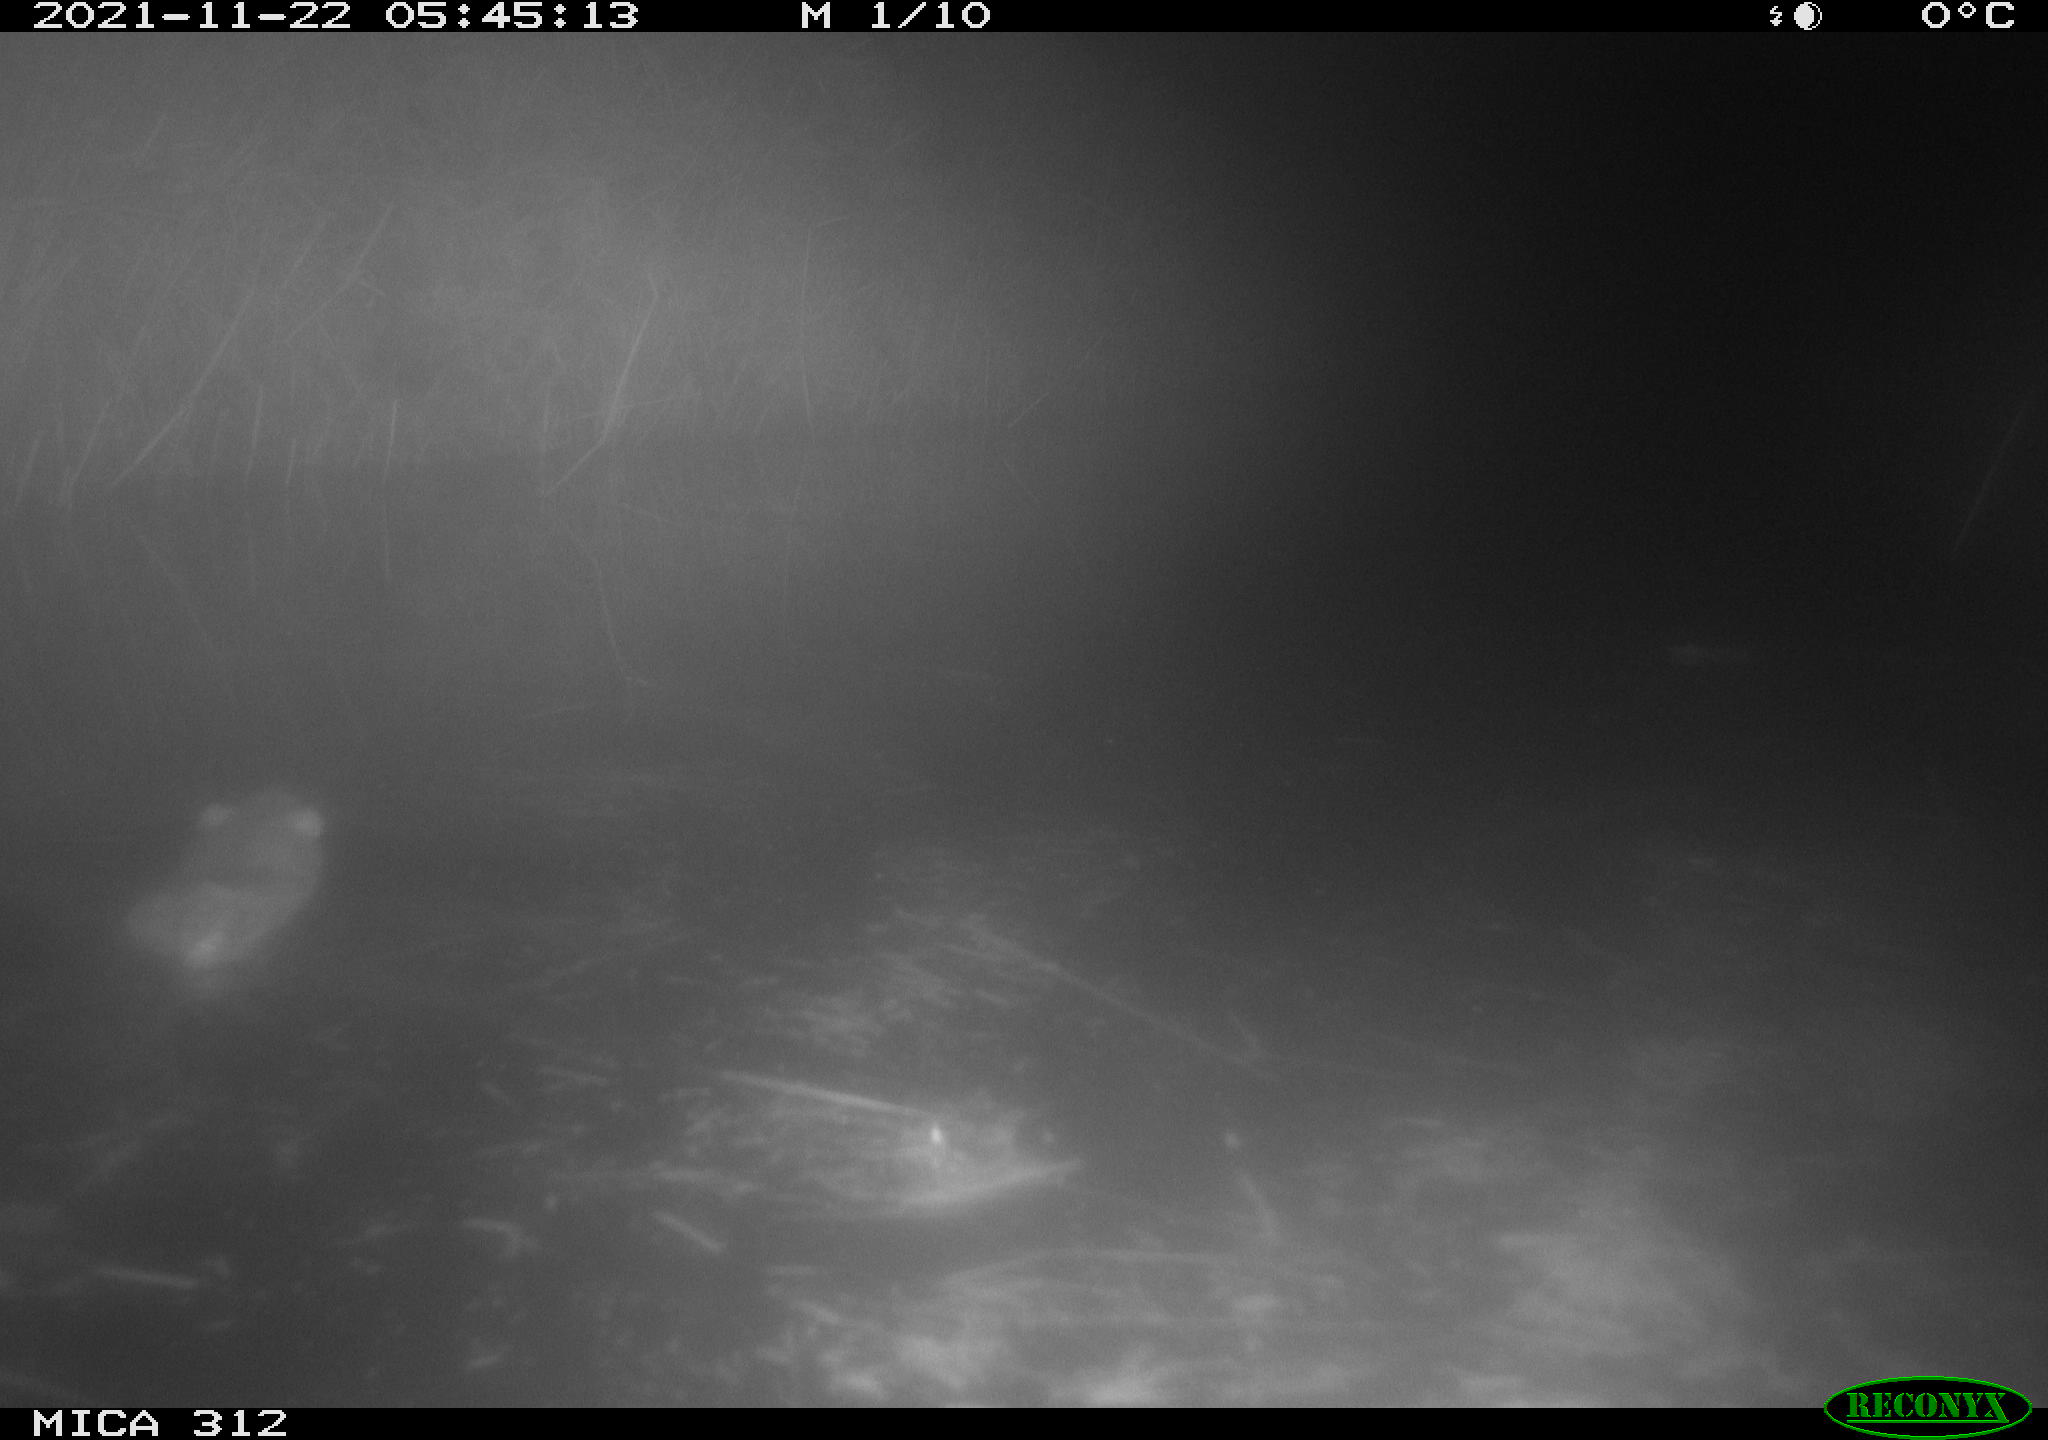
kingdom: Animalia
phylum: Chordata
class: Mammalia
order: Rodentia
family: Muridae
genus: Rattus
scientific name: Rattus norvegicus
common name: Brown rat
